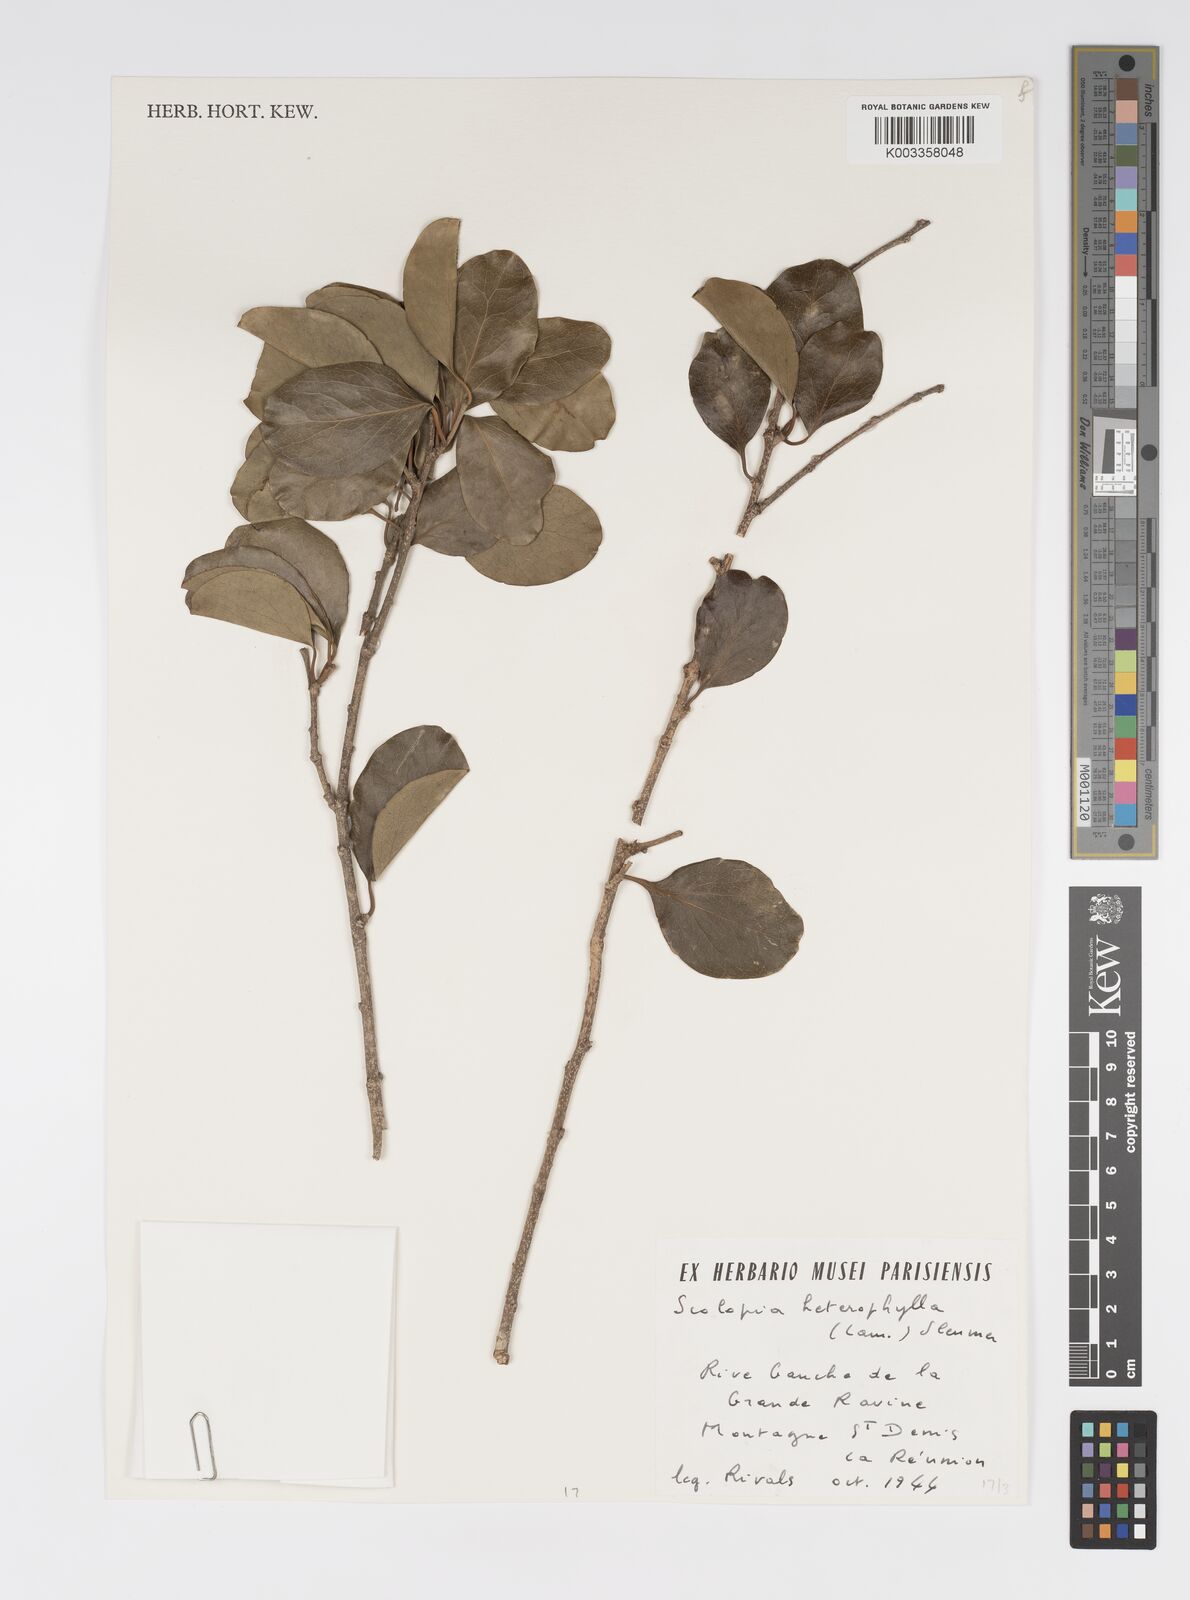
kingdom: Plantae
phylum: Tracheophyta
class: Magnoliopsida
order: Malpighiales
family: Salicaceae
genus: Scolopia
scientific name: Scolopia heterophylla
